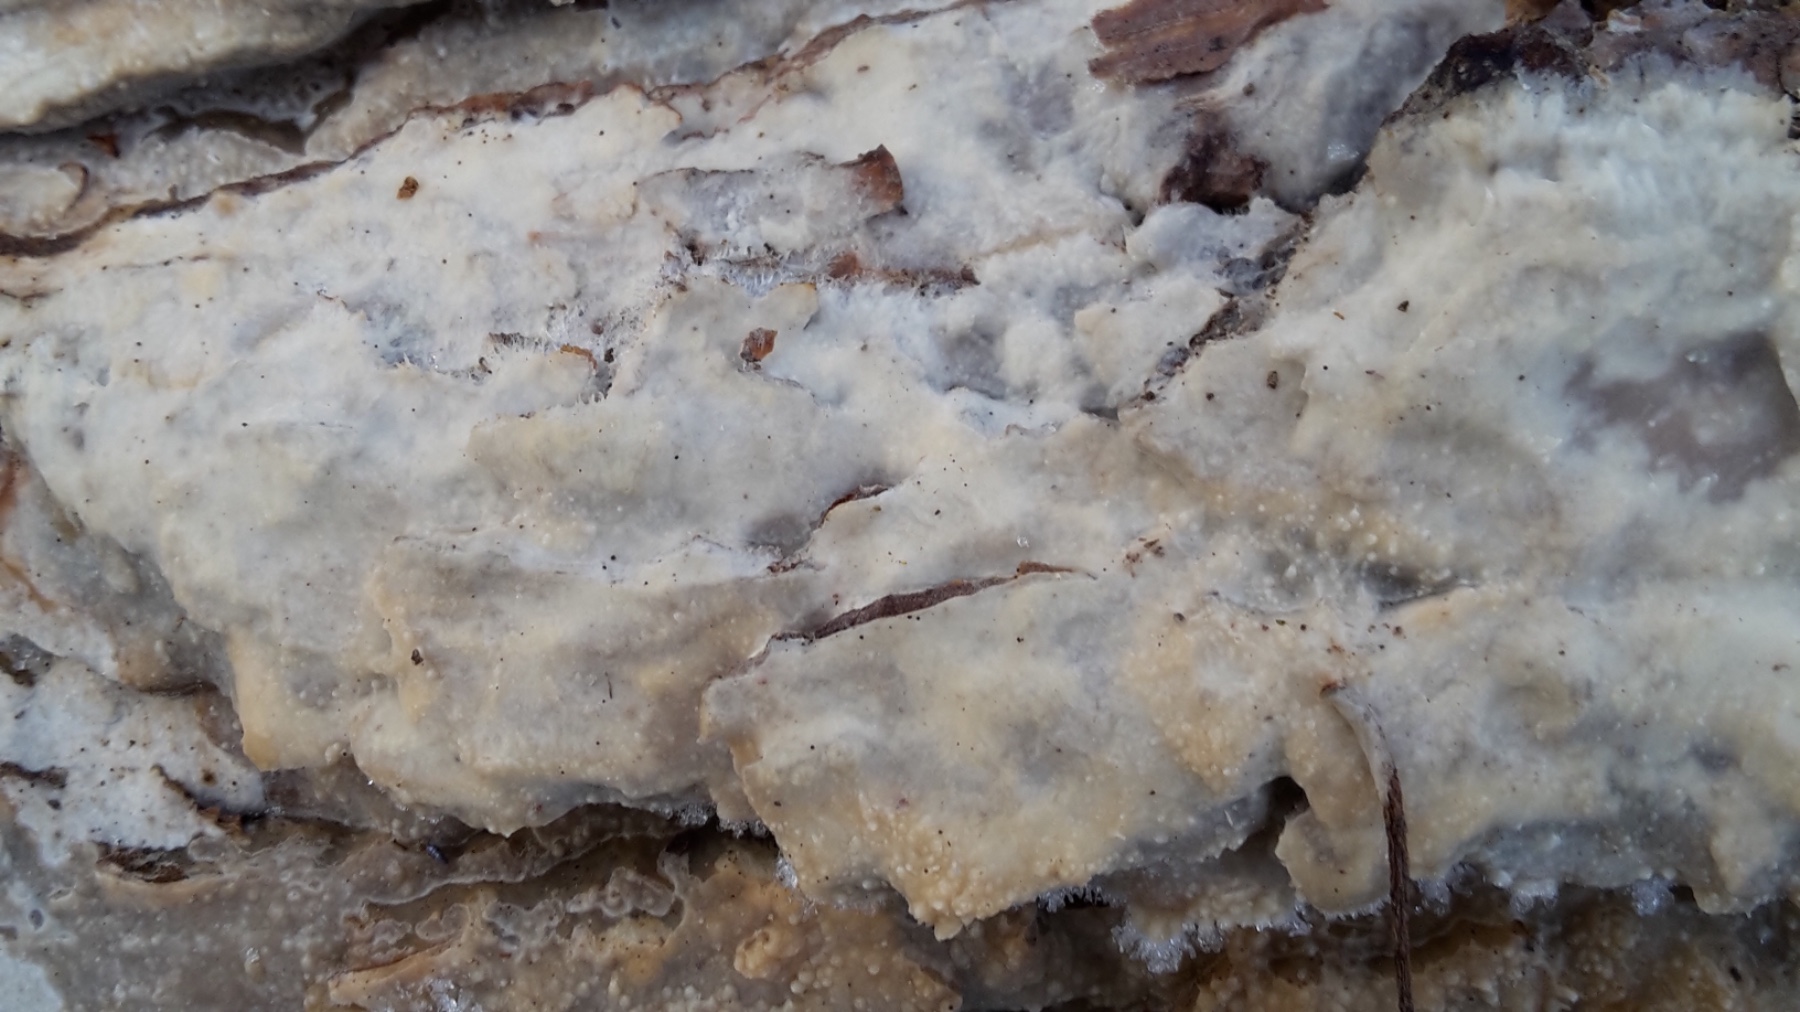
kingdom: Fungi
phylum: Basidiomycota
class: Agaricomycetes
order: Polyporales
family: Phanerochaetaceae
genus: Phlebiopsis
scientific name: Phlebiopsis gigantea
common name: kæmpebarksvamp
